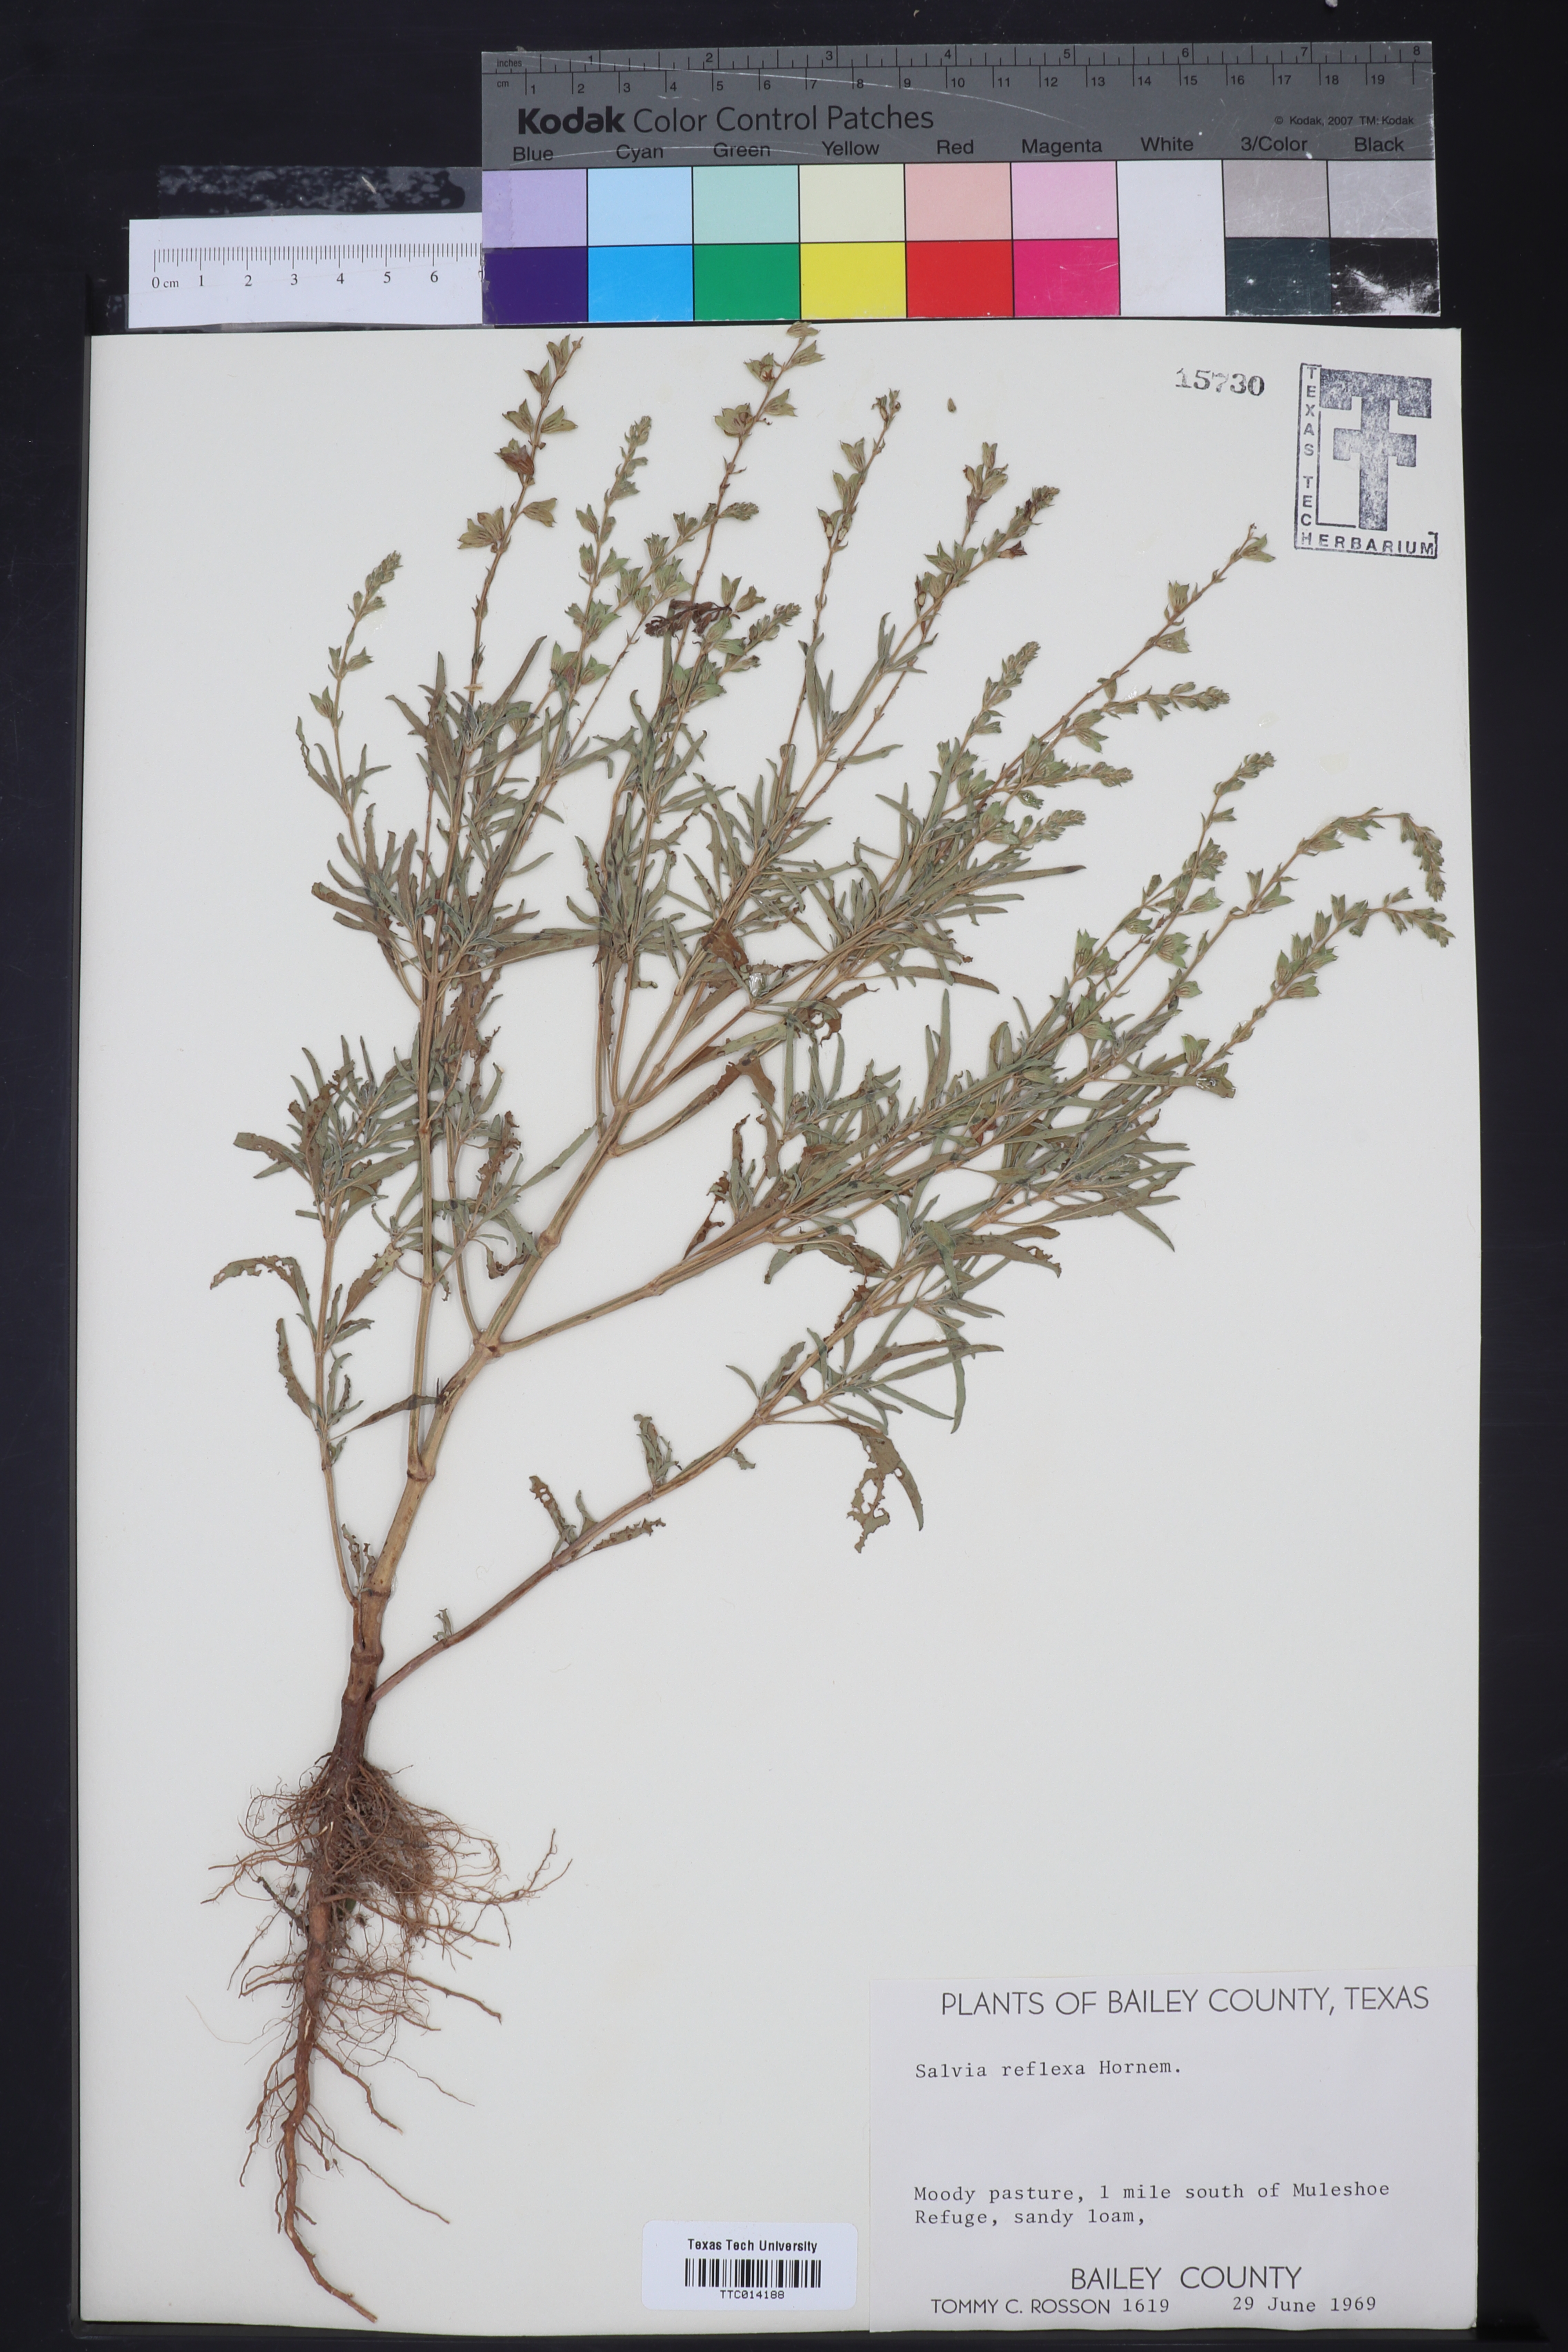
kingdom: Plantae
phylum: Tracheophyta
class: Magnoliopsida
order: Lamiales
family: Lamiaceae
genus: Salvia
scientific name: Salvia reflexa
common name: Mintweed
